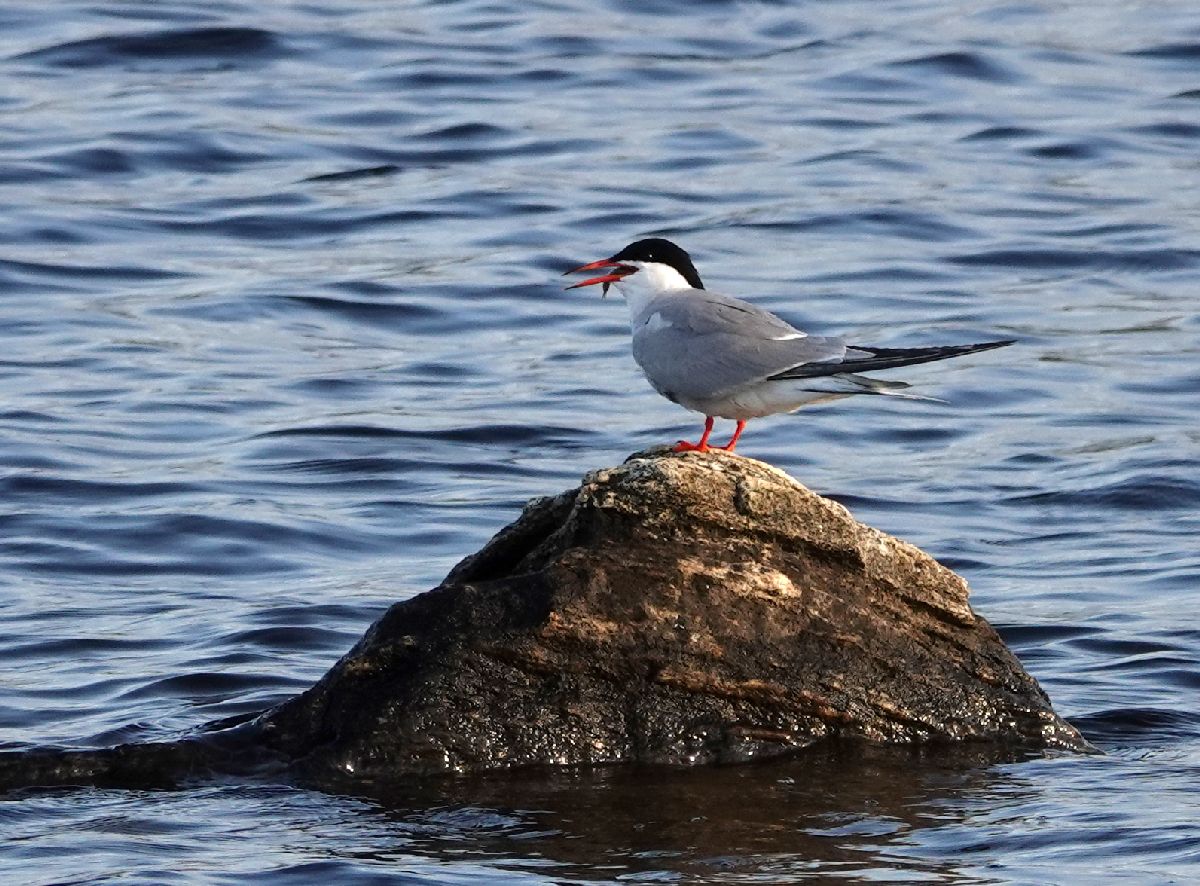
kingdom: Animalia
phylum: Chordata
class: Aves
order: Charadriiformes
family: Laridae
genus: Sterna
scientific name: Sterna hirundo
